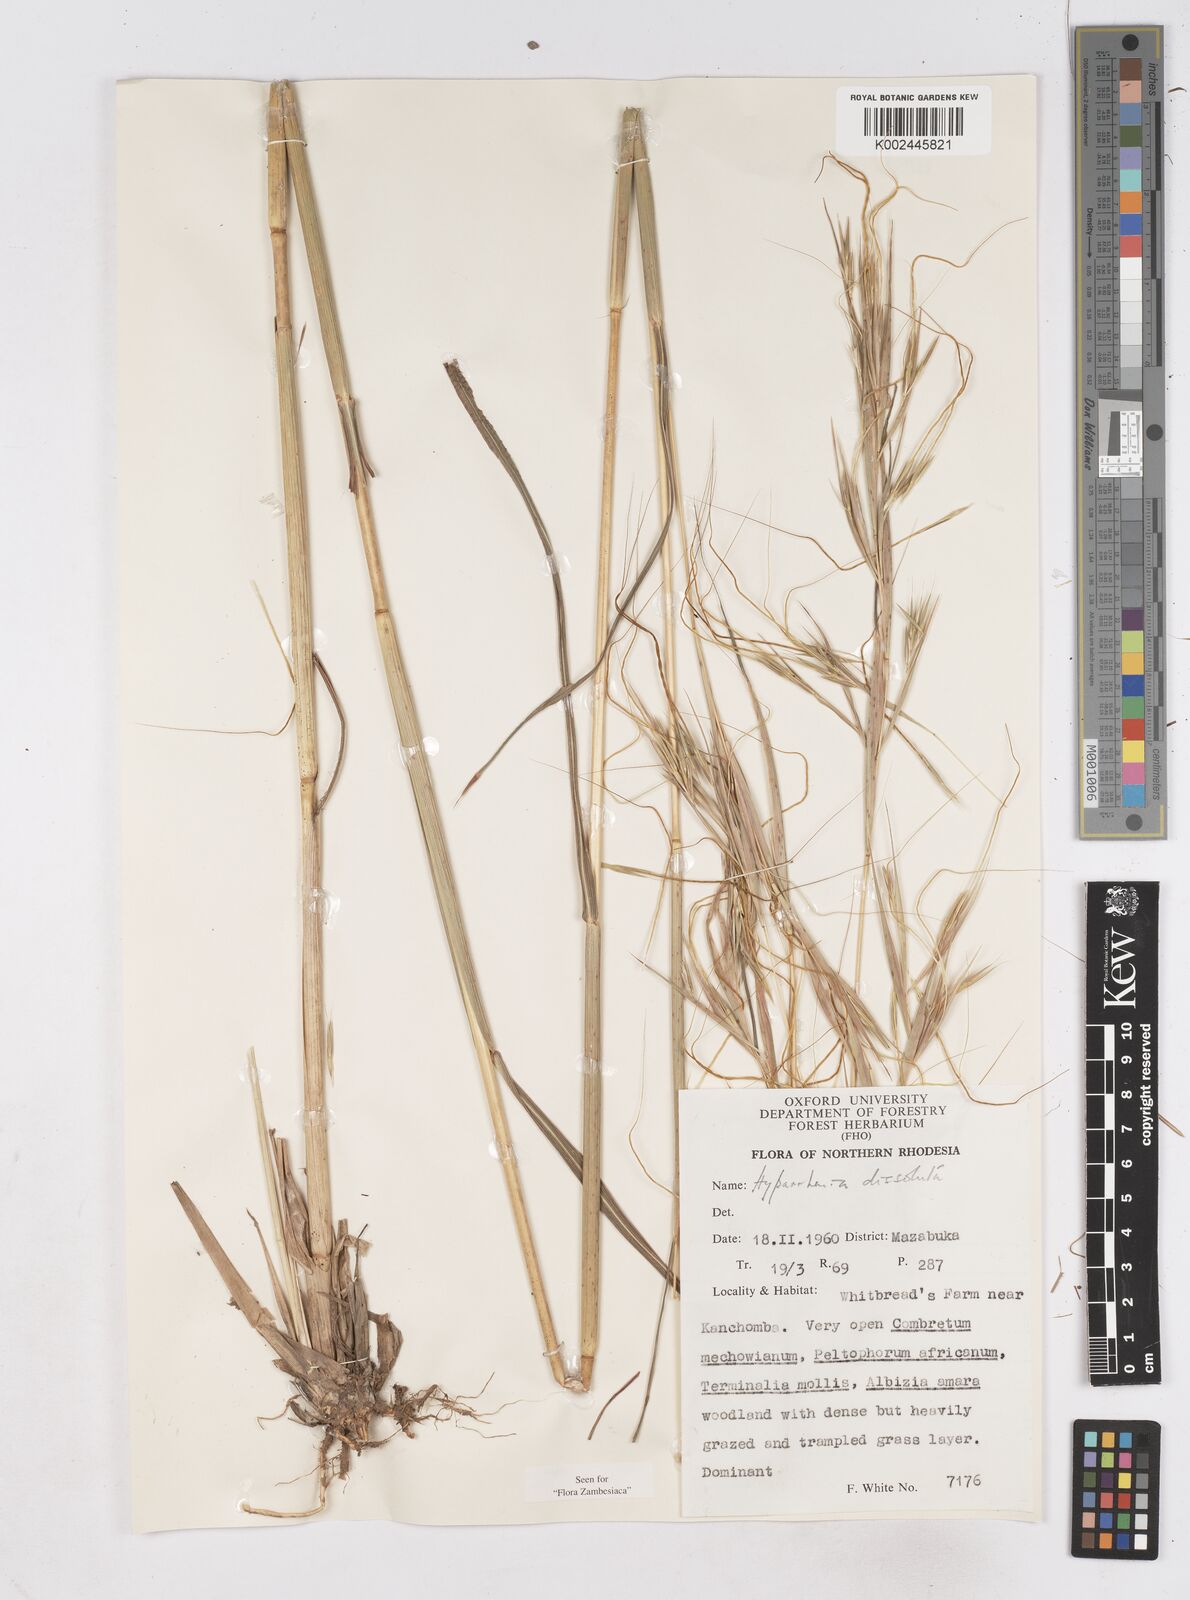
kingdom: Plantae
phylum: Tracheophyta
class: Liliopsida
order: Poales
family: Poaceae
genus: Hyperthelia
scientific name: Hyperthelia dissoluta
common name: Yellow thatching grass
